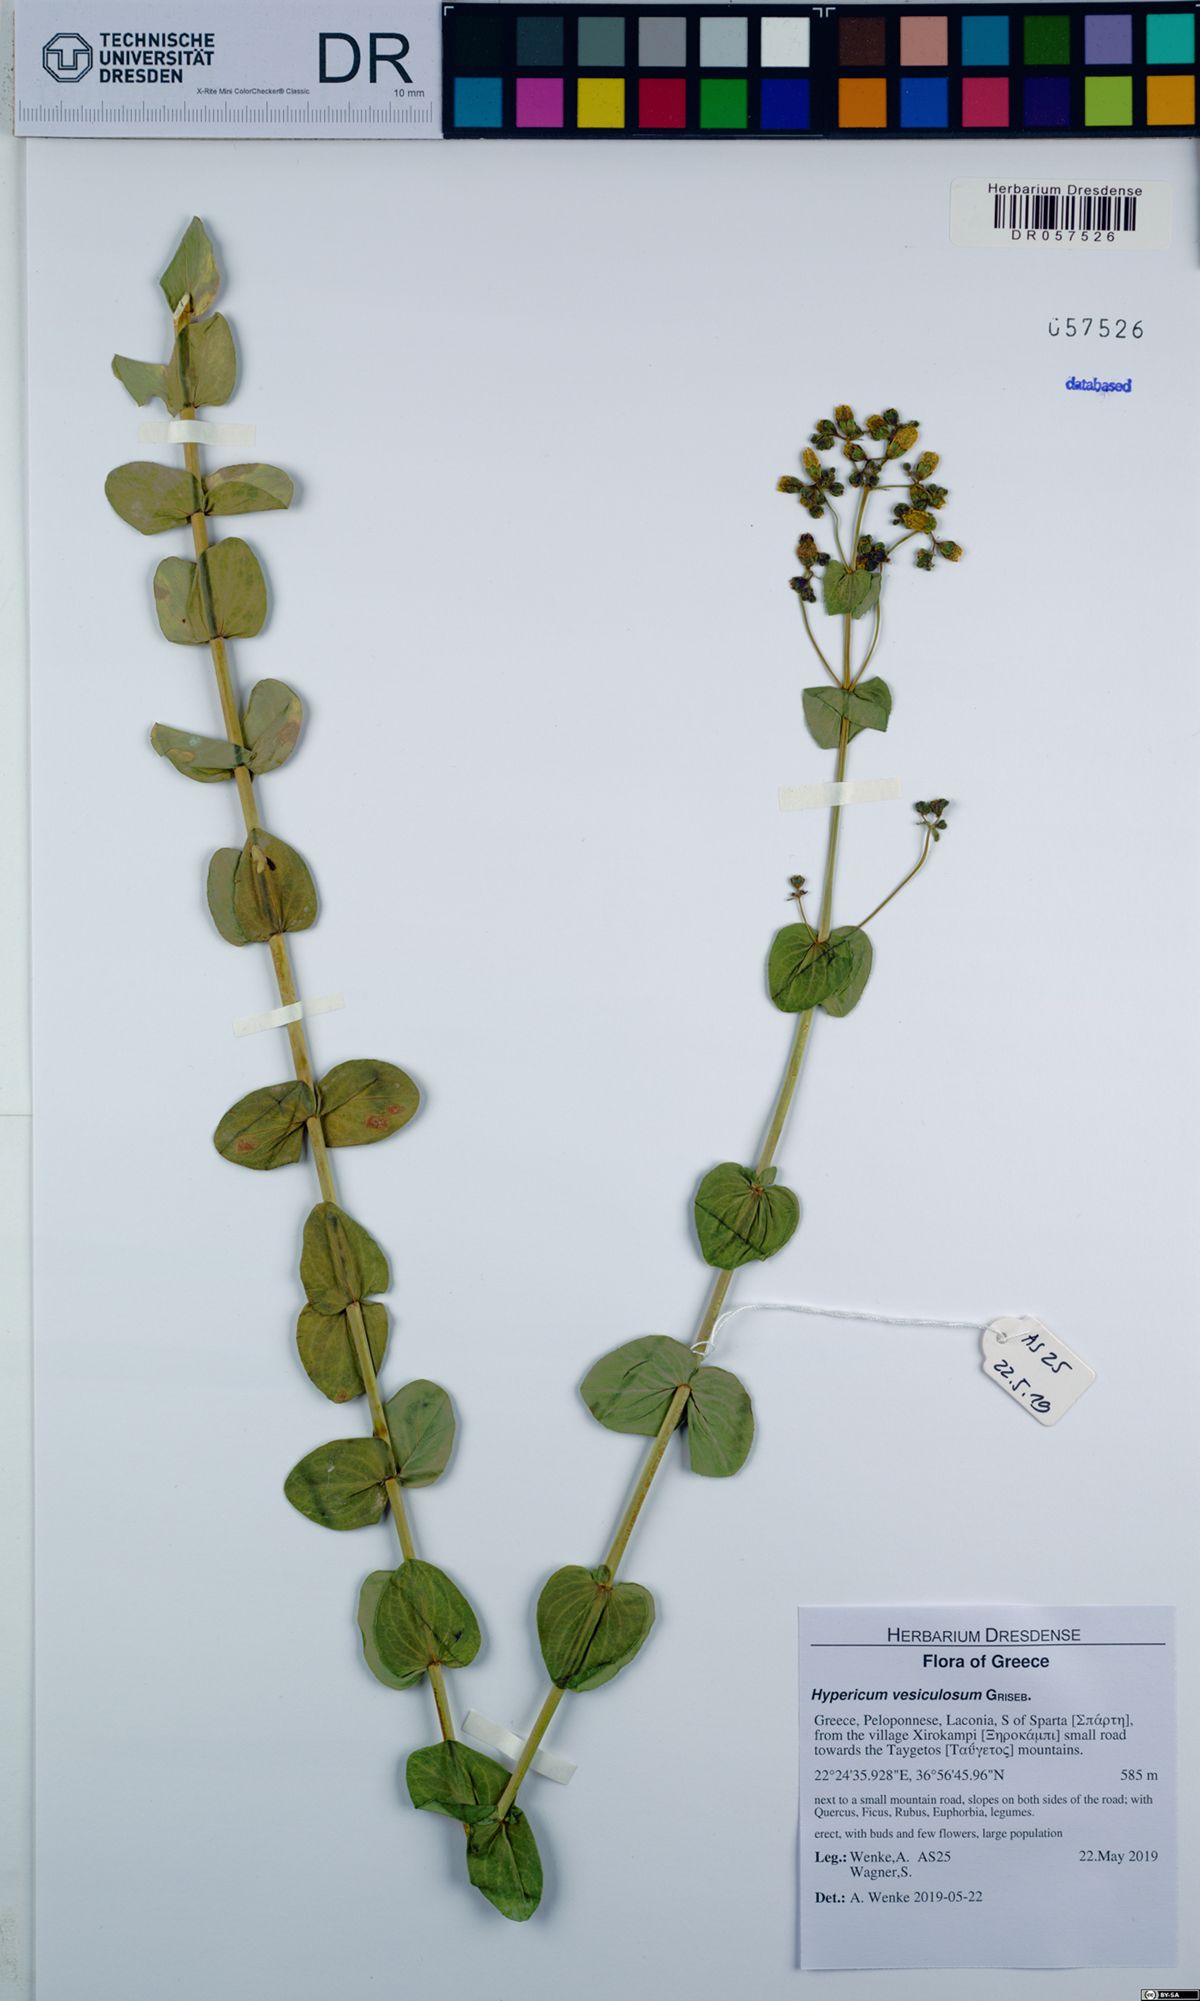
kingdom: Plantae
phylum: Tracheophyta
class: Magnoliopsida
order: Malpighiales
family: Hypericaceae
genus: Hypericum
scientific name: Hypericum vesiculosum
